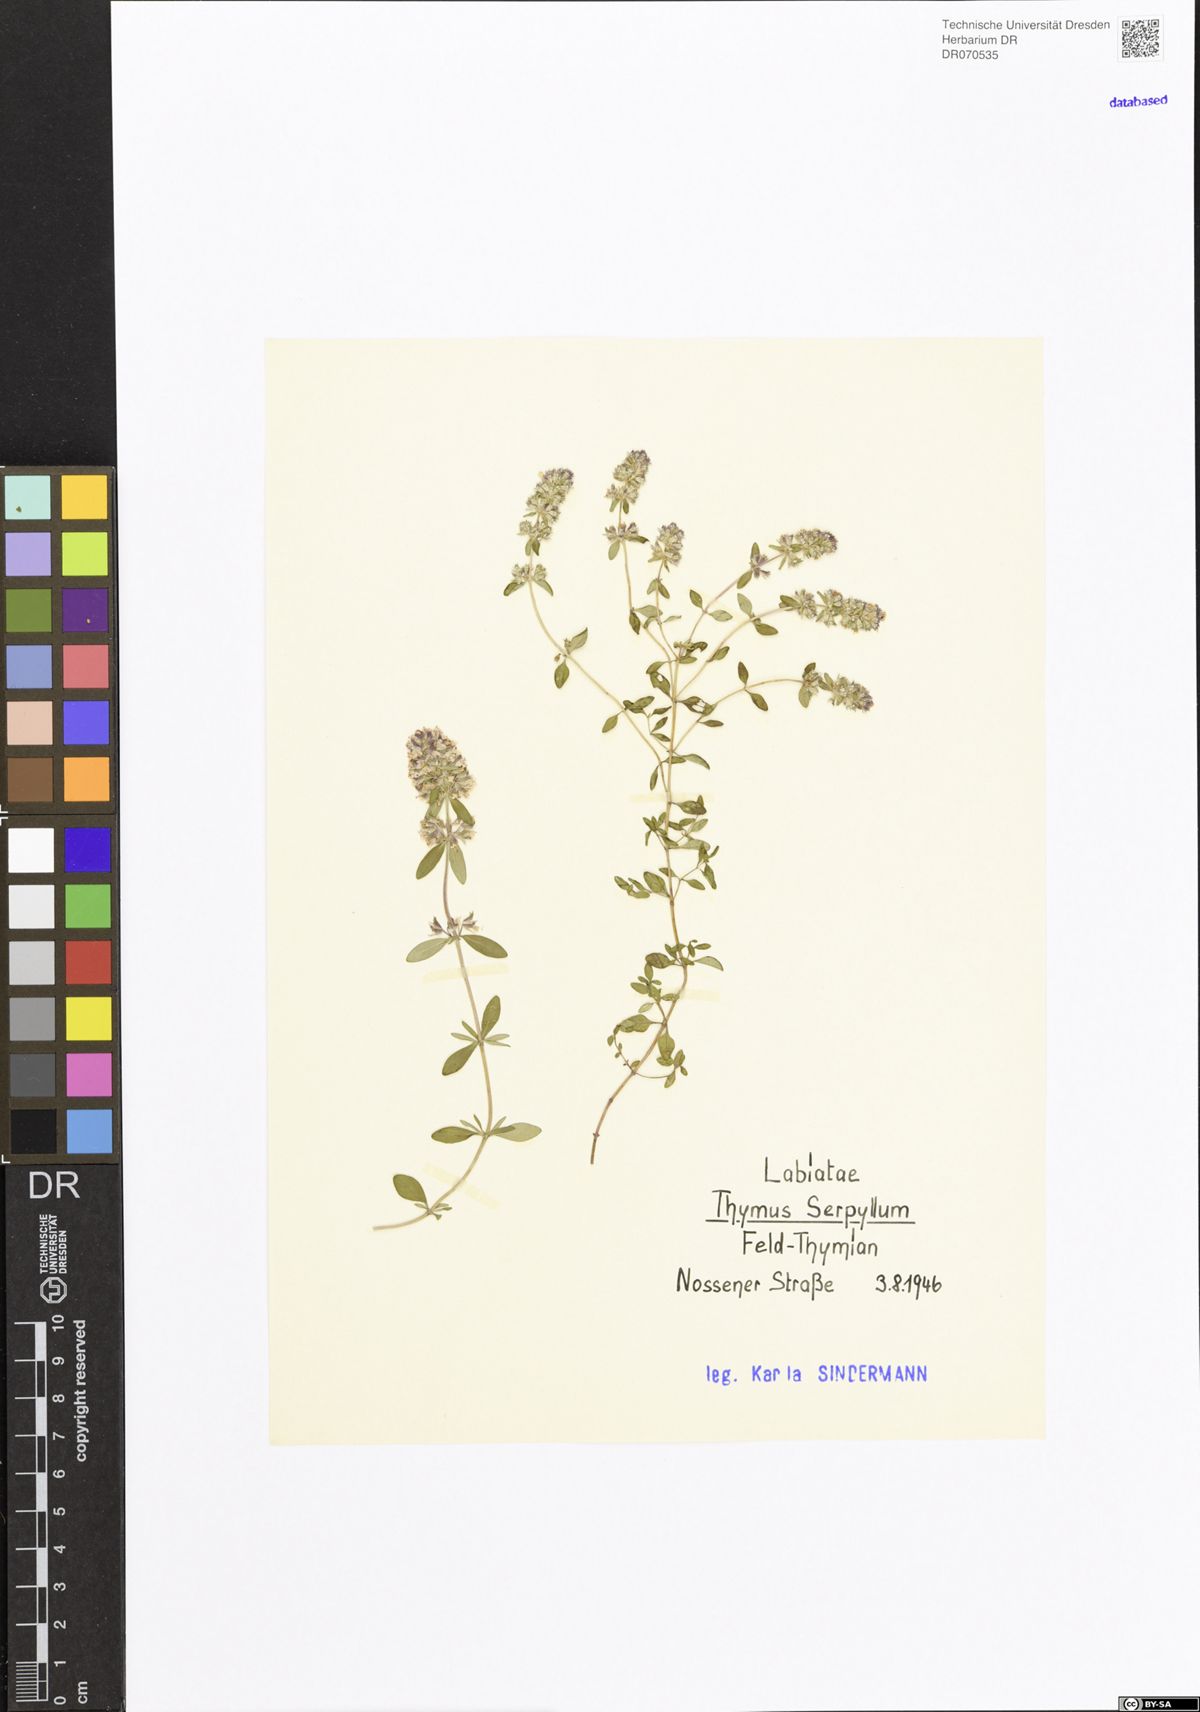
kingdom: Plantae
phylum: Tracheophyta
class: Magnoliopsida
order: Lamiales
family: Lamiaceae
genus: Thymus
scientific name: Thymus serpyllum
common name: Breckland thyme
